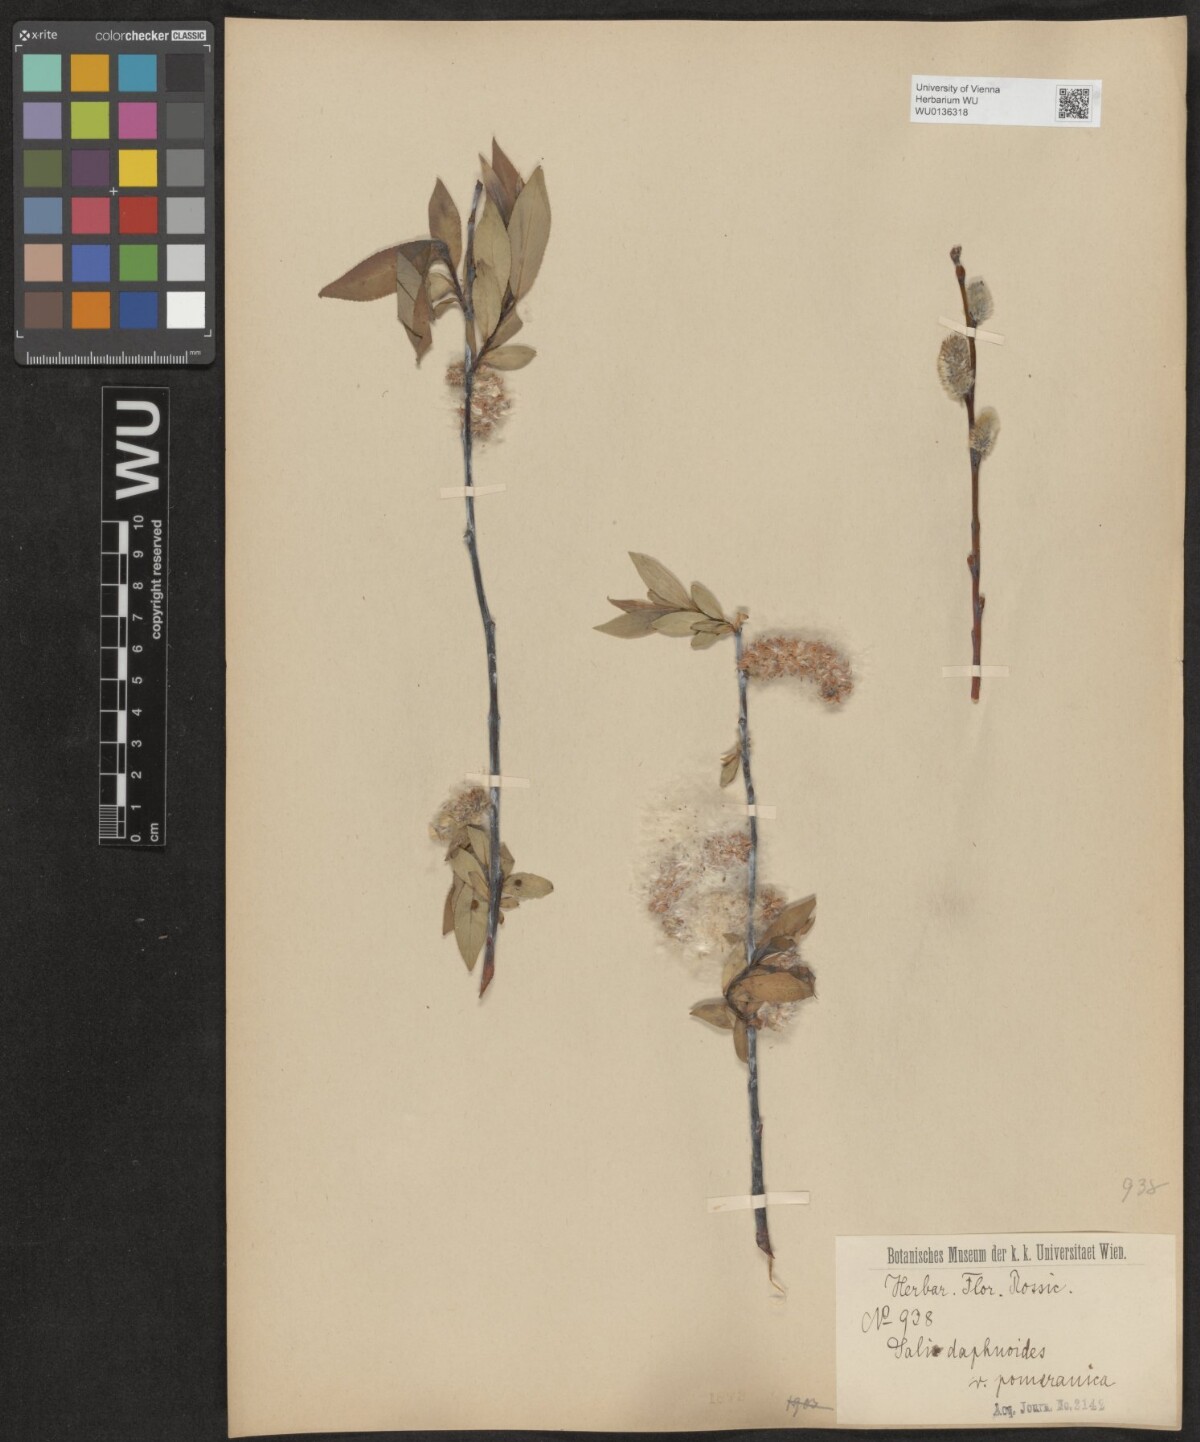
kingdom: Plantae
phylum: Tracheophyta
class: Magnoliopsida
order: Malpighiales
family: Salicaceae
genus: Salix
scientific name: Salix daphnoides
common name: European violet-willow
